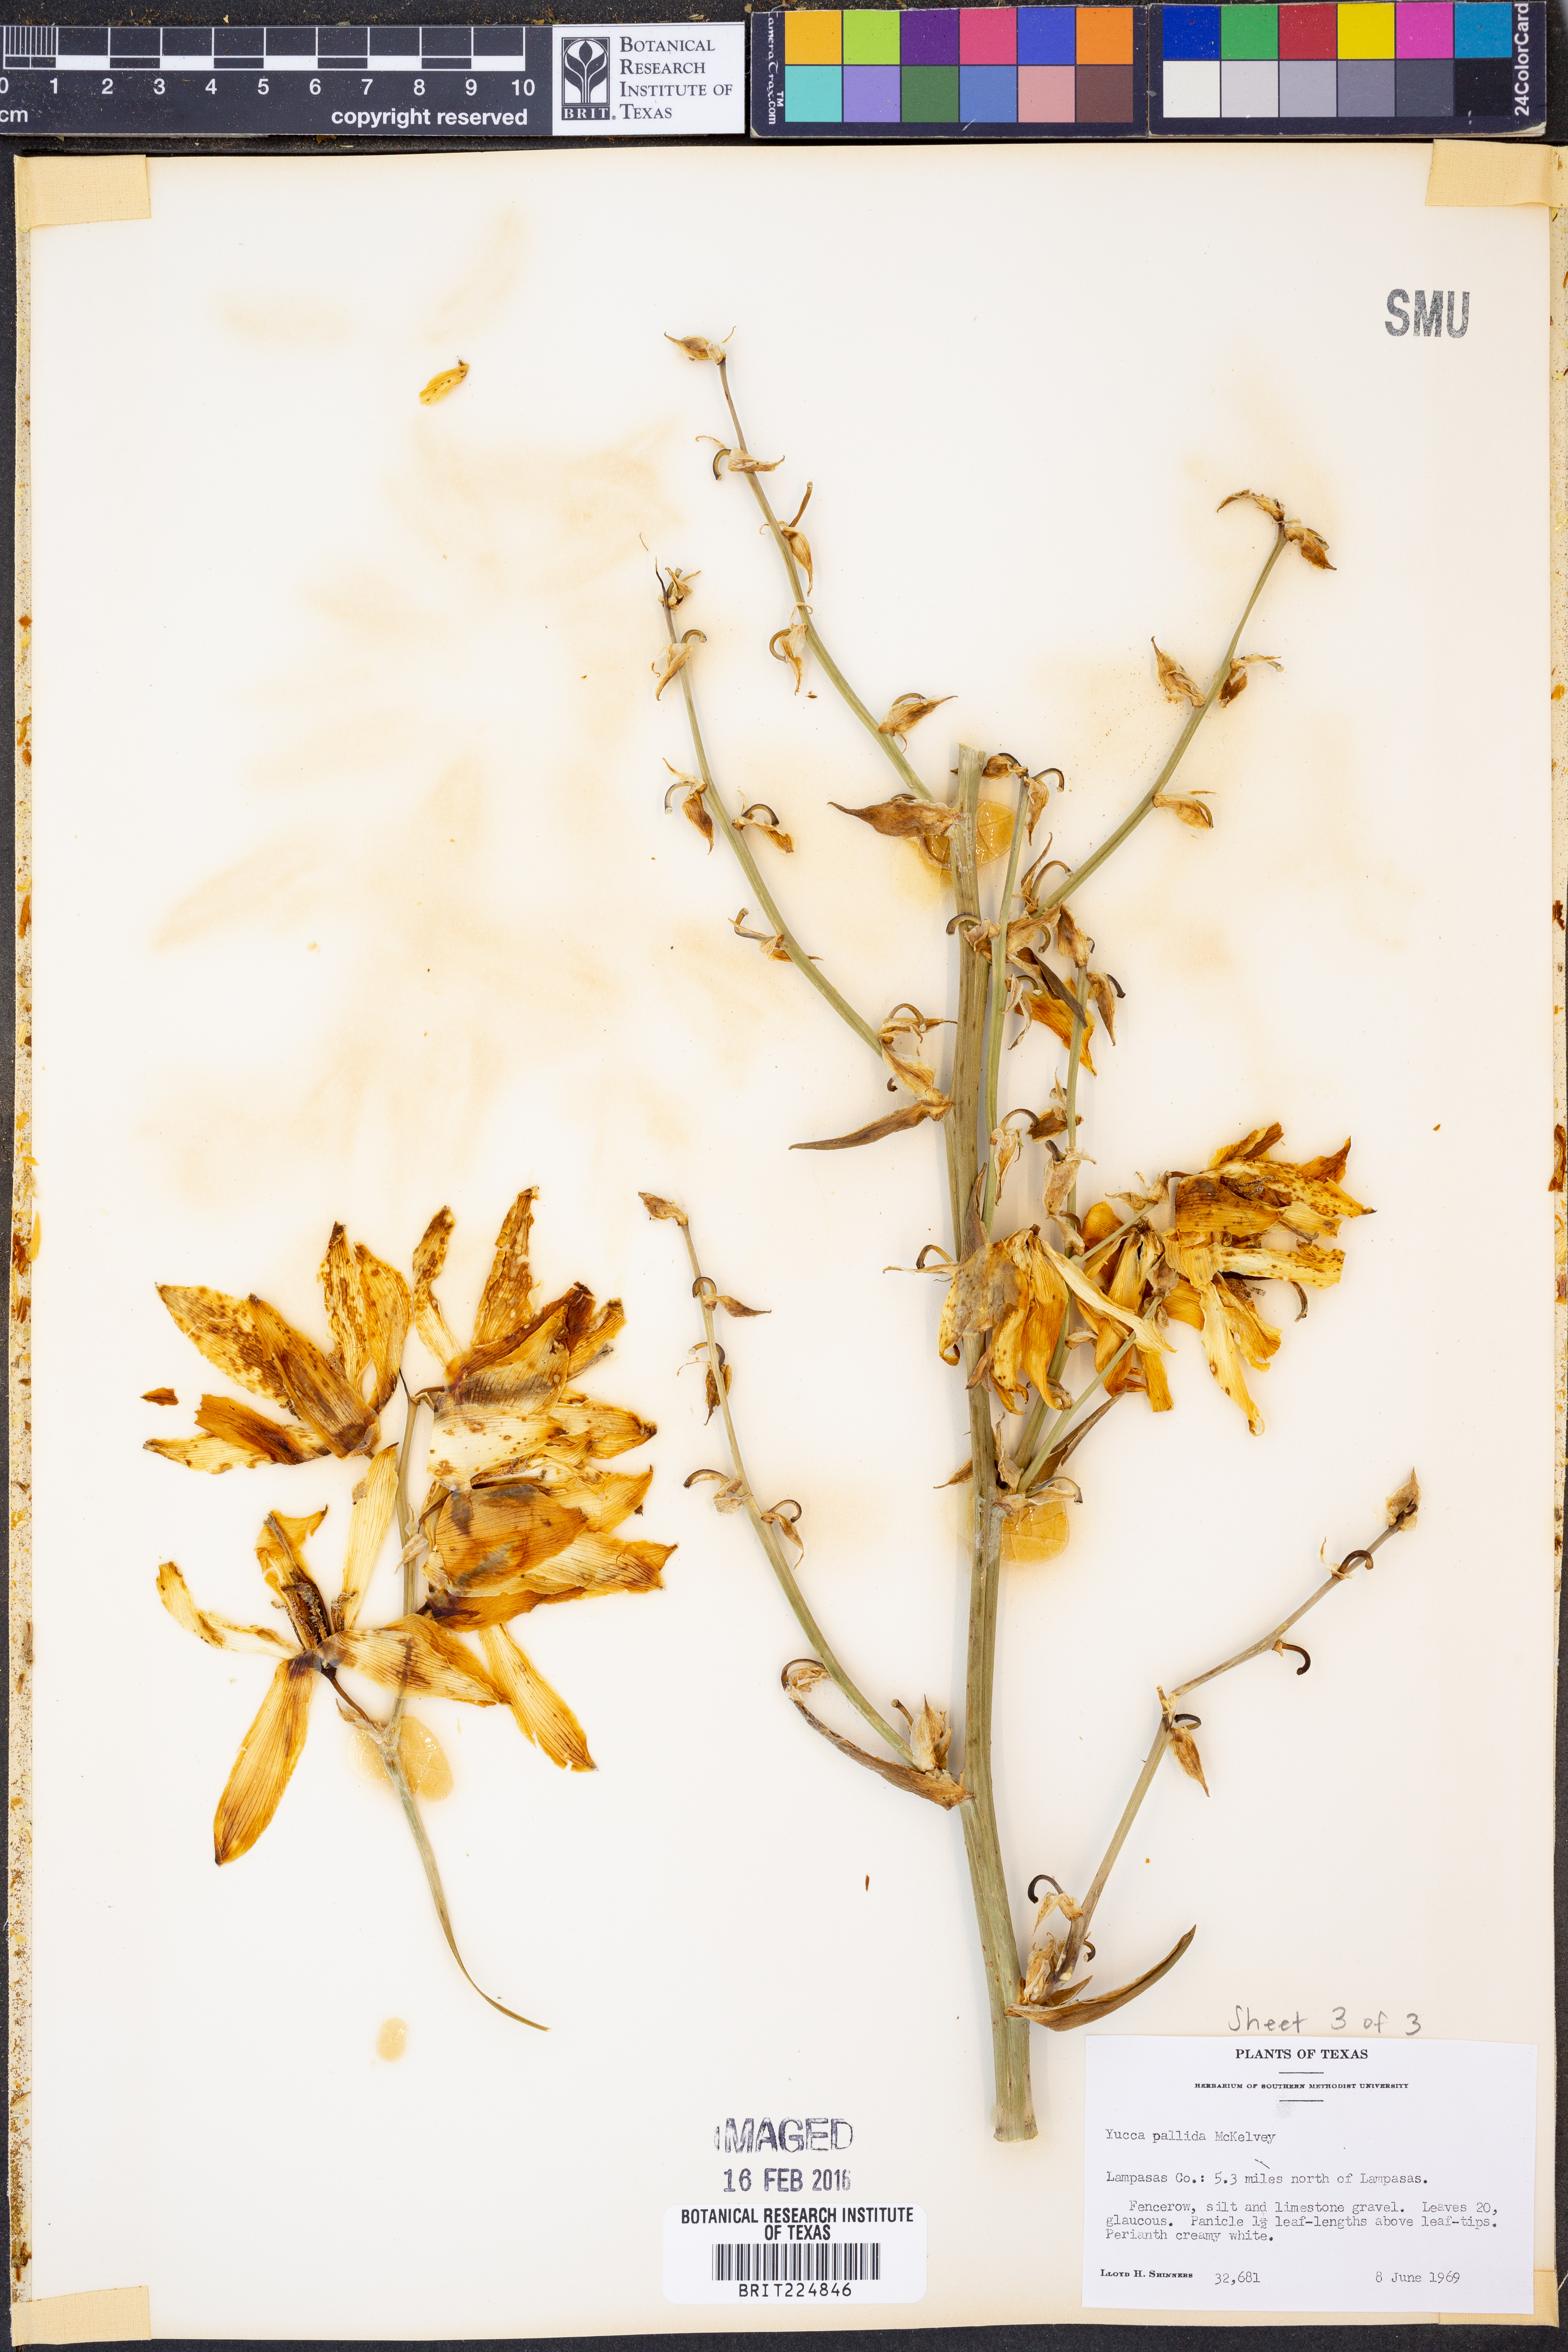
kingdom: Plantae
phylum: Tracheophyta
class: Liliopsida
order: Asparagales
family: Asparagaceae
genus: Yucca
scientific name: Yucca pallida
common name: Pale leaf yucca
